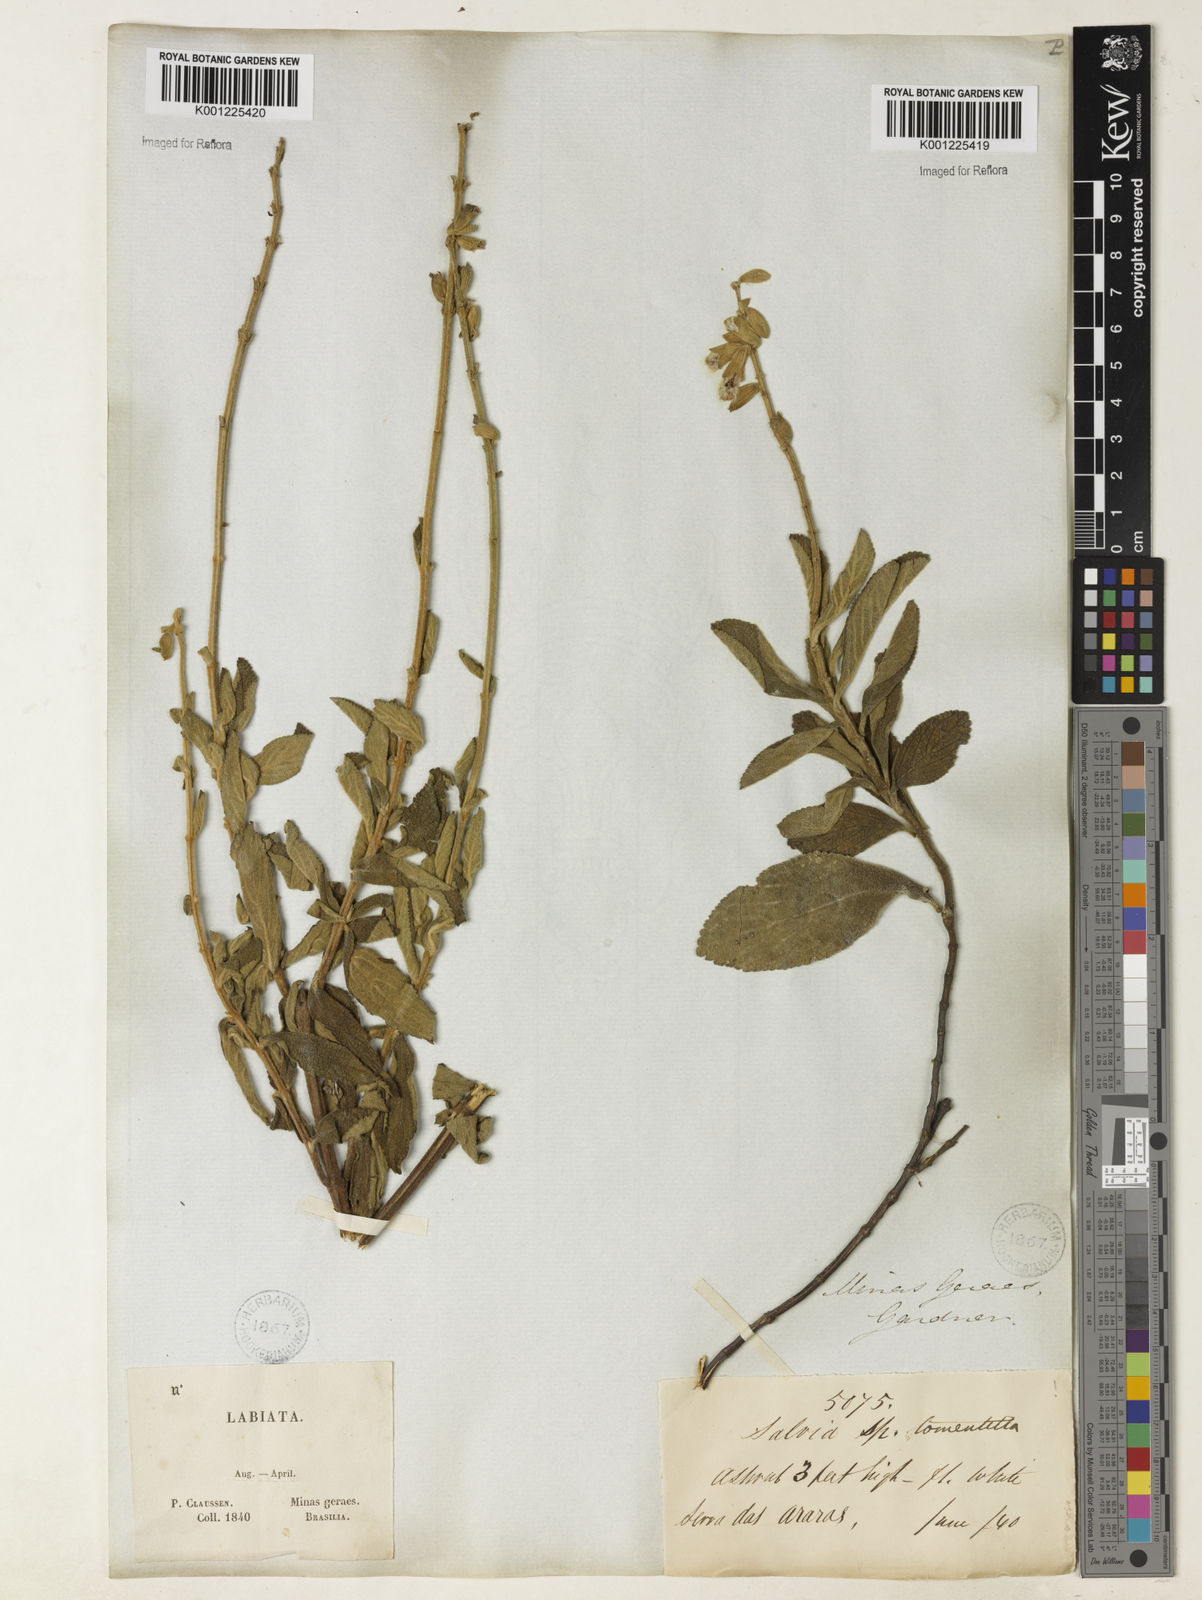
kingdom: Plantae
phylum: Tracheophyta
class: Magnoliopsida
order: Lamiales
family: Lamiaceae
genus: Salvia
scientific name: Salvia tomentella
